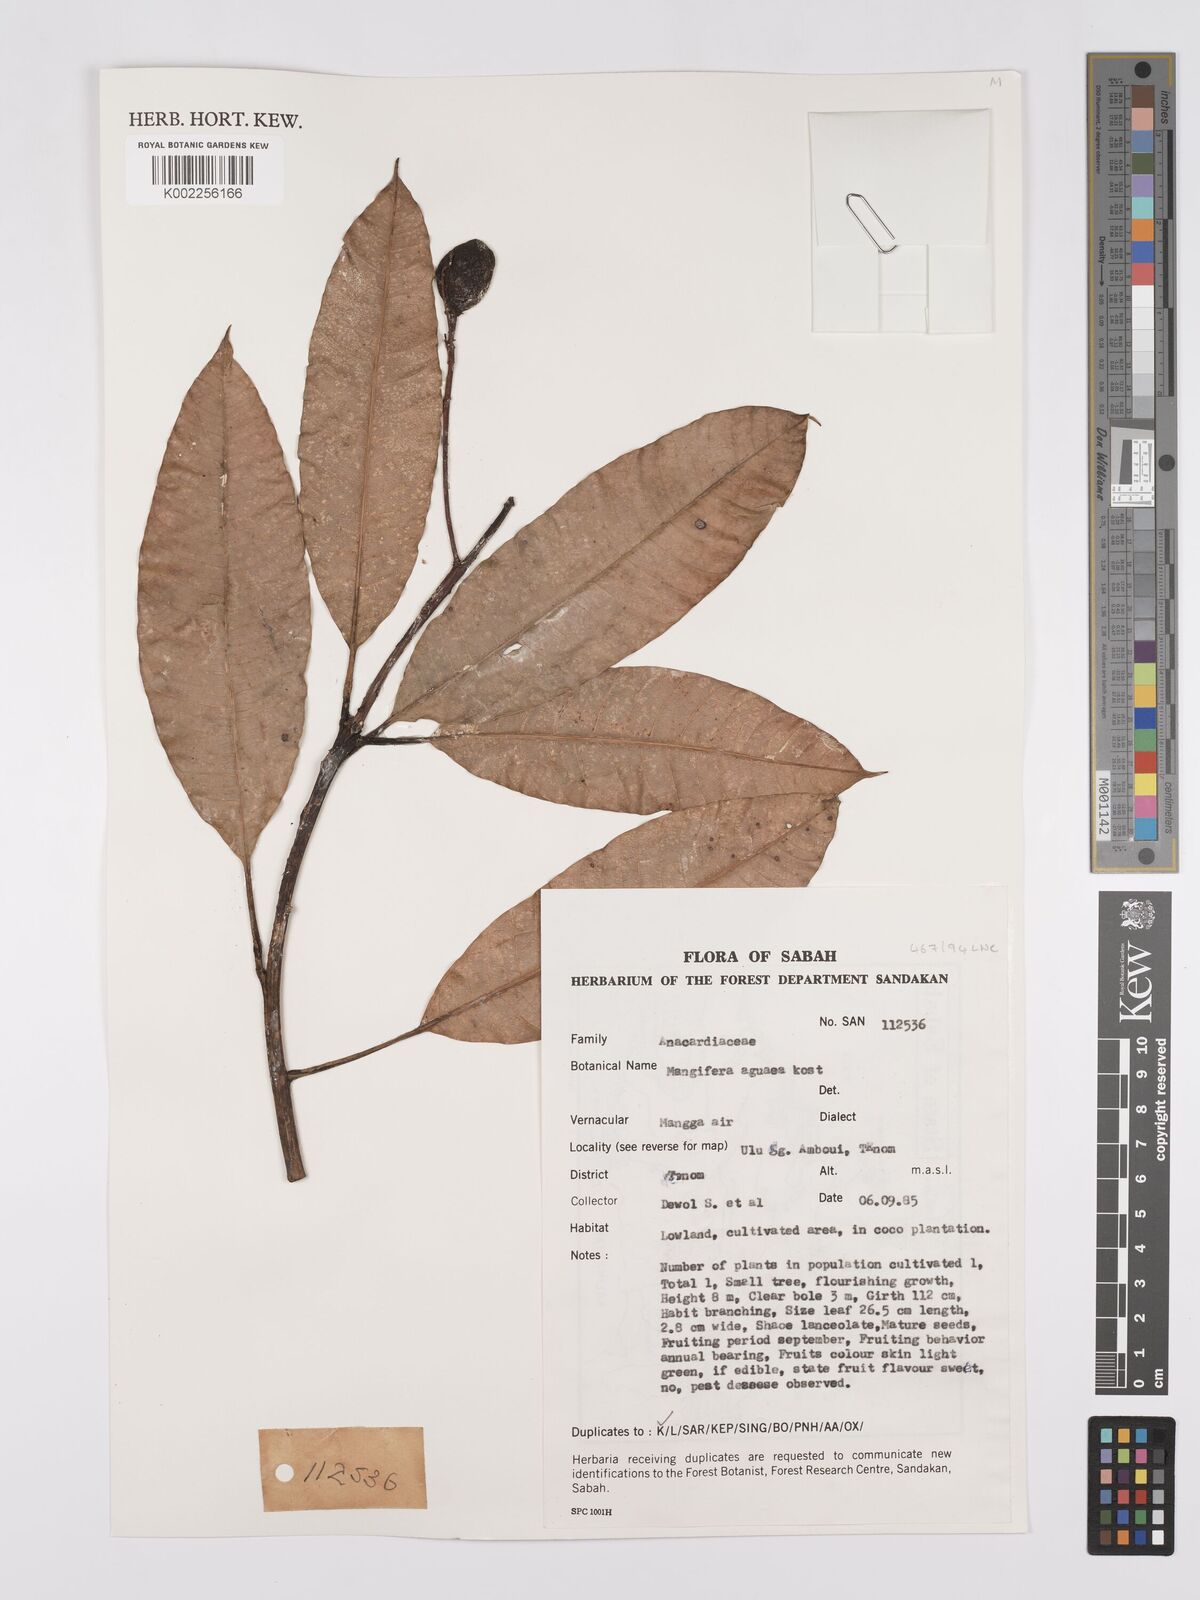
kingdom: Plantae
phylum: Tracheophyta
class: Magnoliopsida
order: Sapindales
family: Anacardiaceae
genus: Mangifera
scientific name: Mangifera laurina
